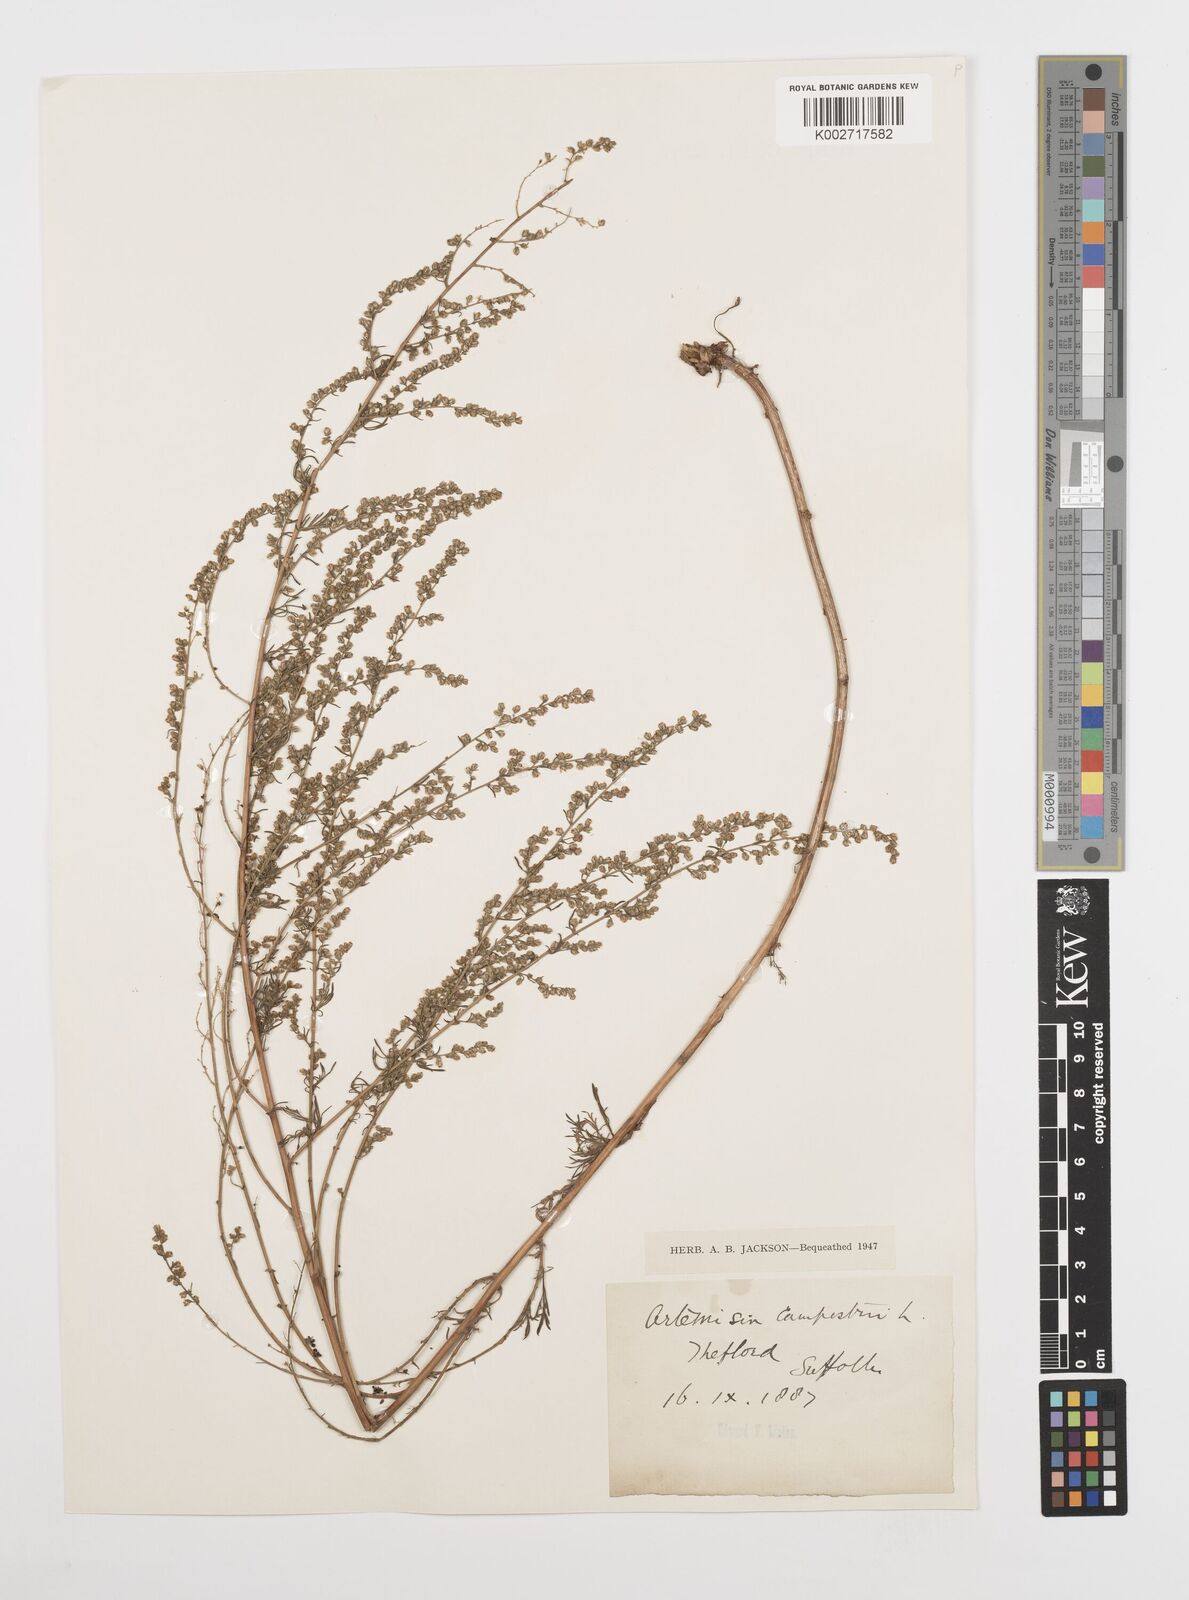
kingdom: Plantae
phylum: Tracheophyta
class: Magnoliopsida
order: Asterales
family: Asteraceae
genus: Artemisia
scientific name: Artemisia campestris
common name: Field wormwood
